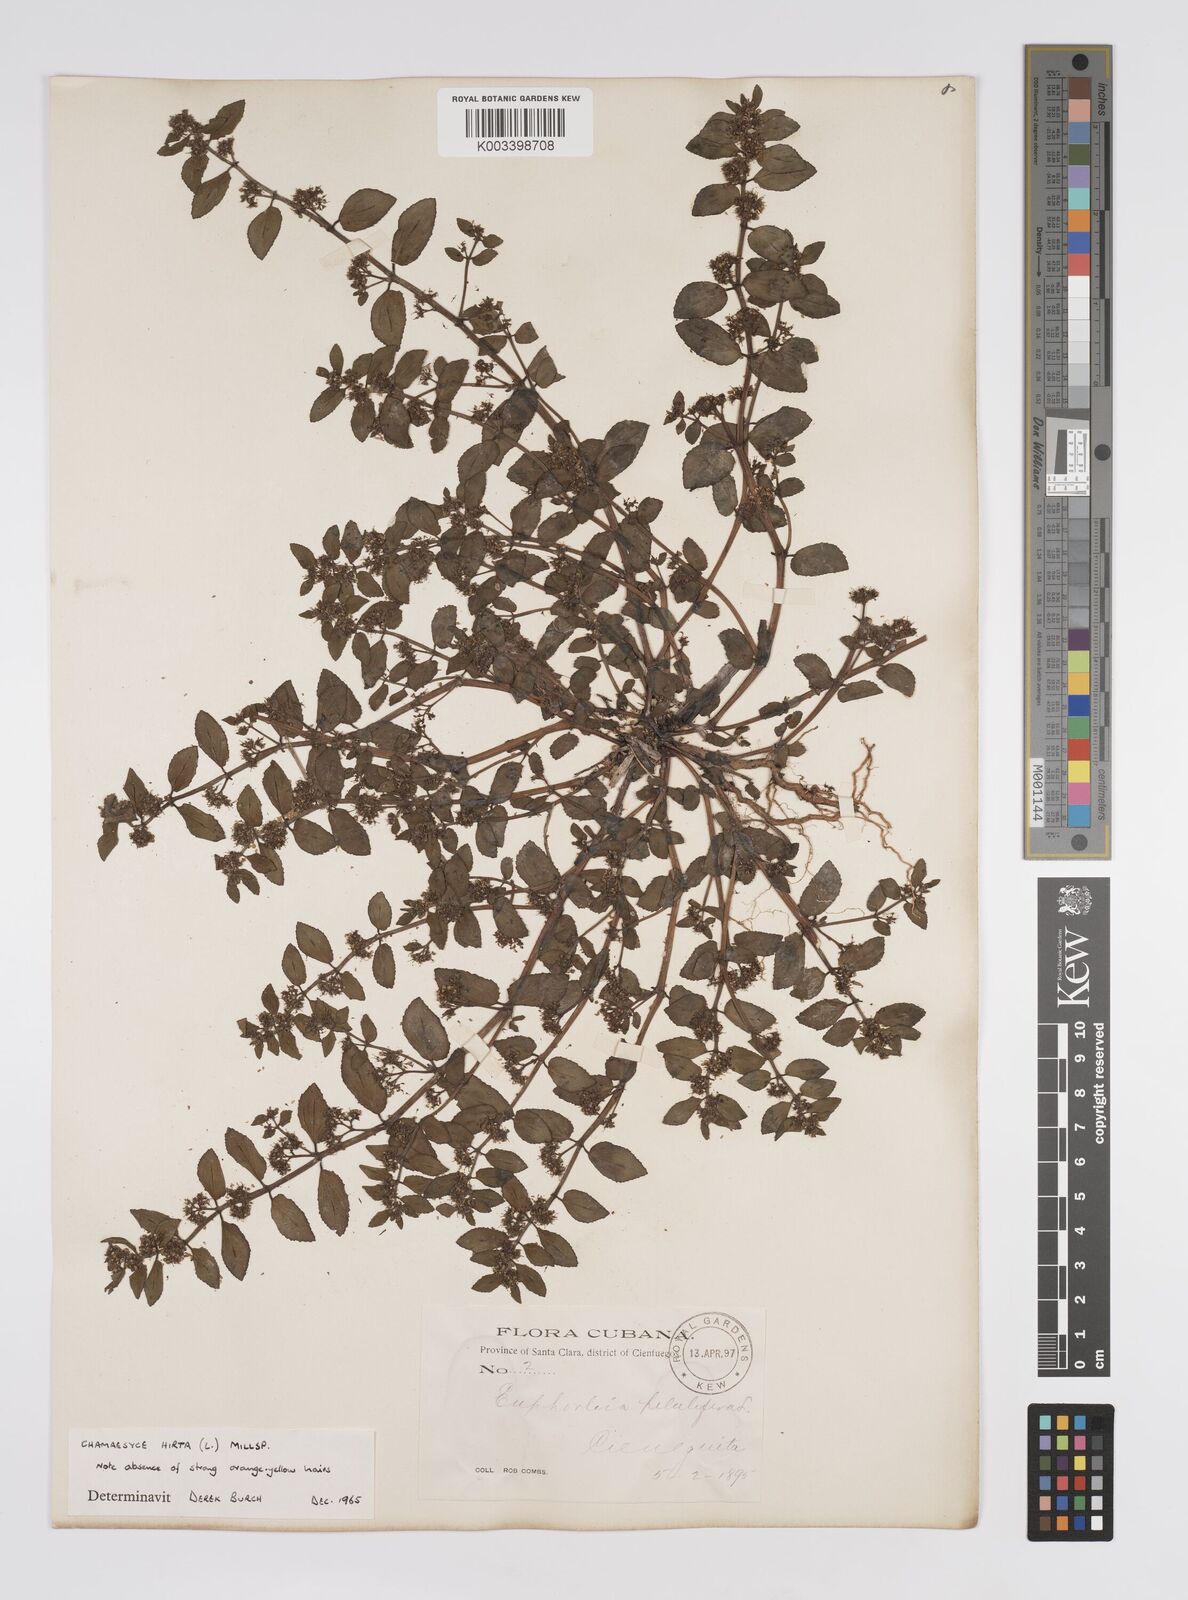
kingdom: Plantae
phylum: Tracheophyta
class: Magnoliopsida
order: Malpighiales
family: Euphorbiaceae
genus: Euphorbia
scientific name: Euphorbia hirta
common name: Pillpod sandmat
